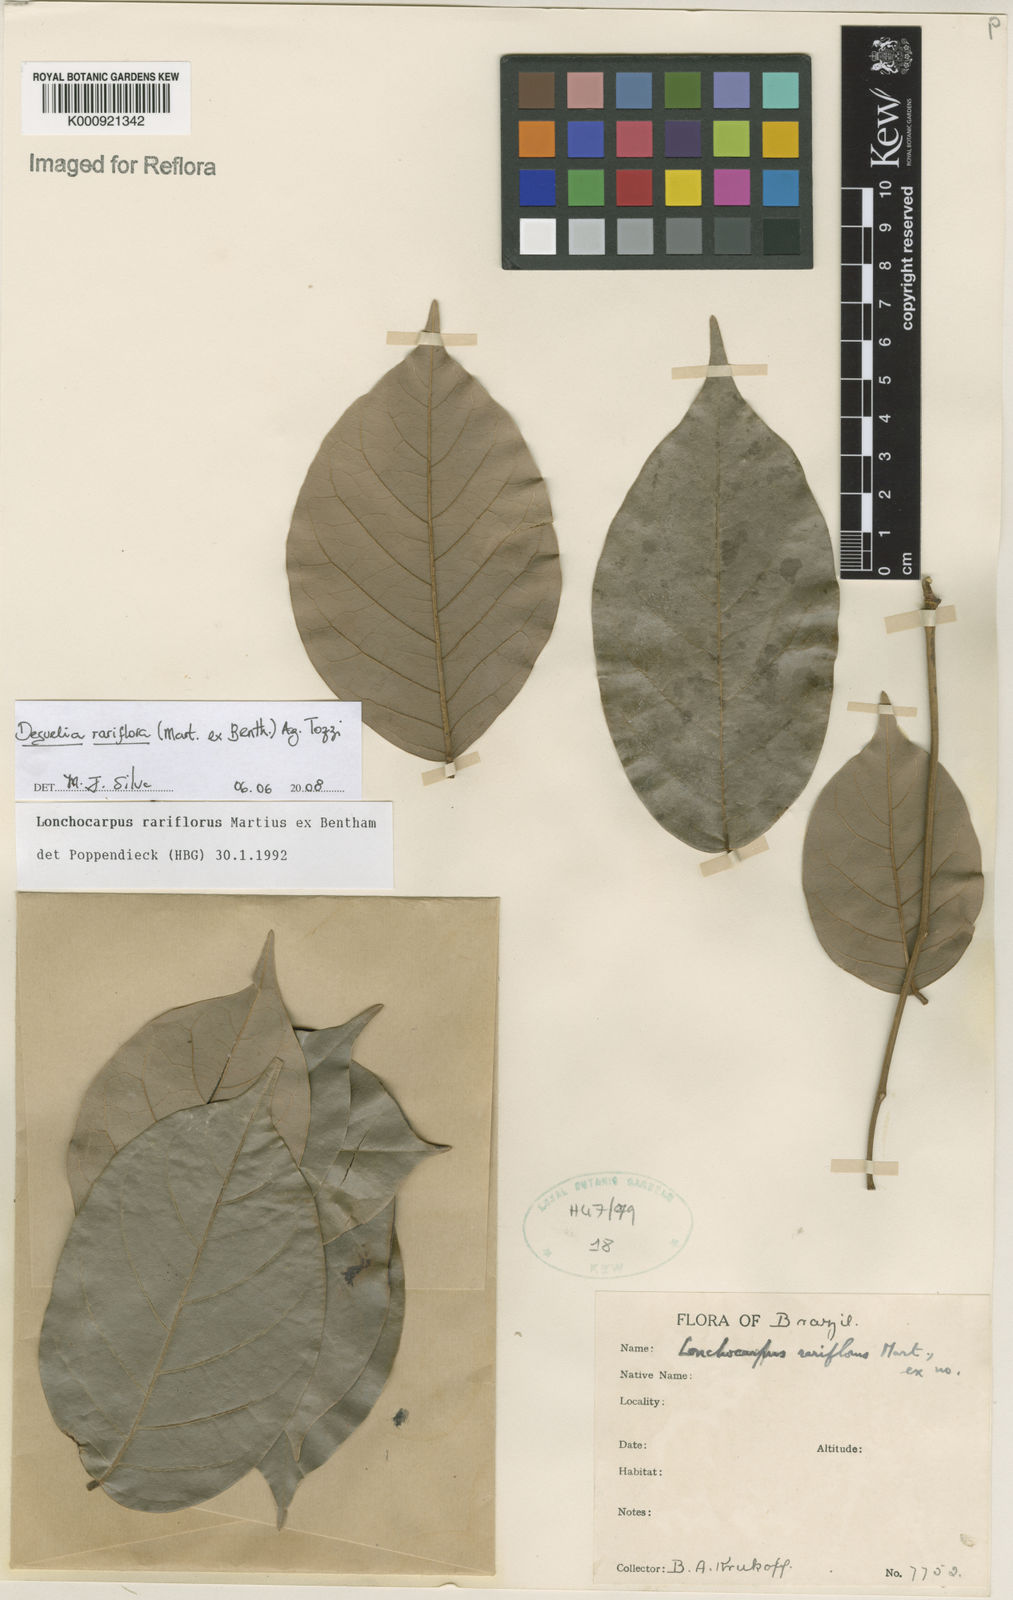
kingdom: Plantae
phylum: Tracheophyta
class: Magnoliopsida
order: Fabales
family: Fabaceae
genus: Deguelia
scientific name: Deguelia
